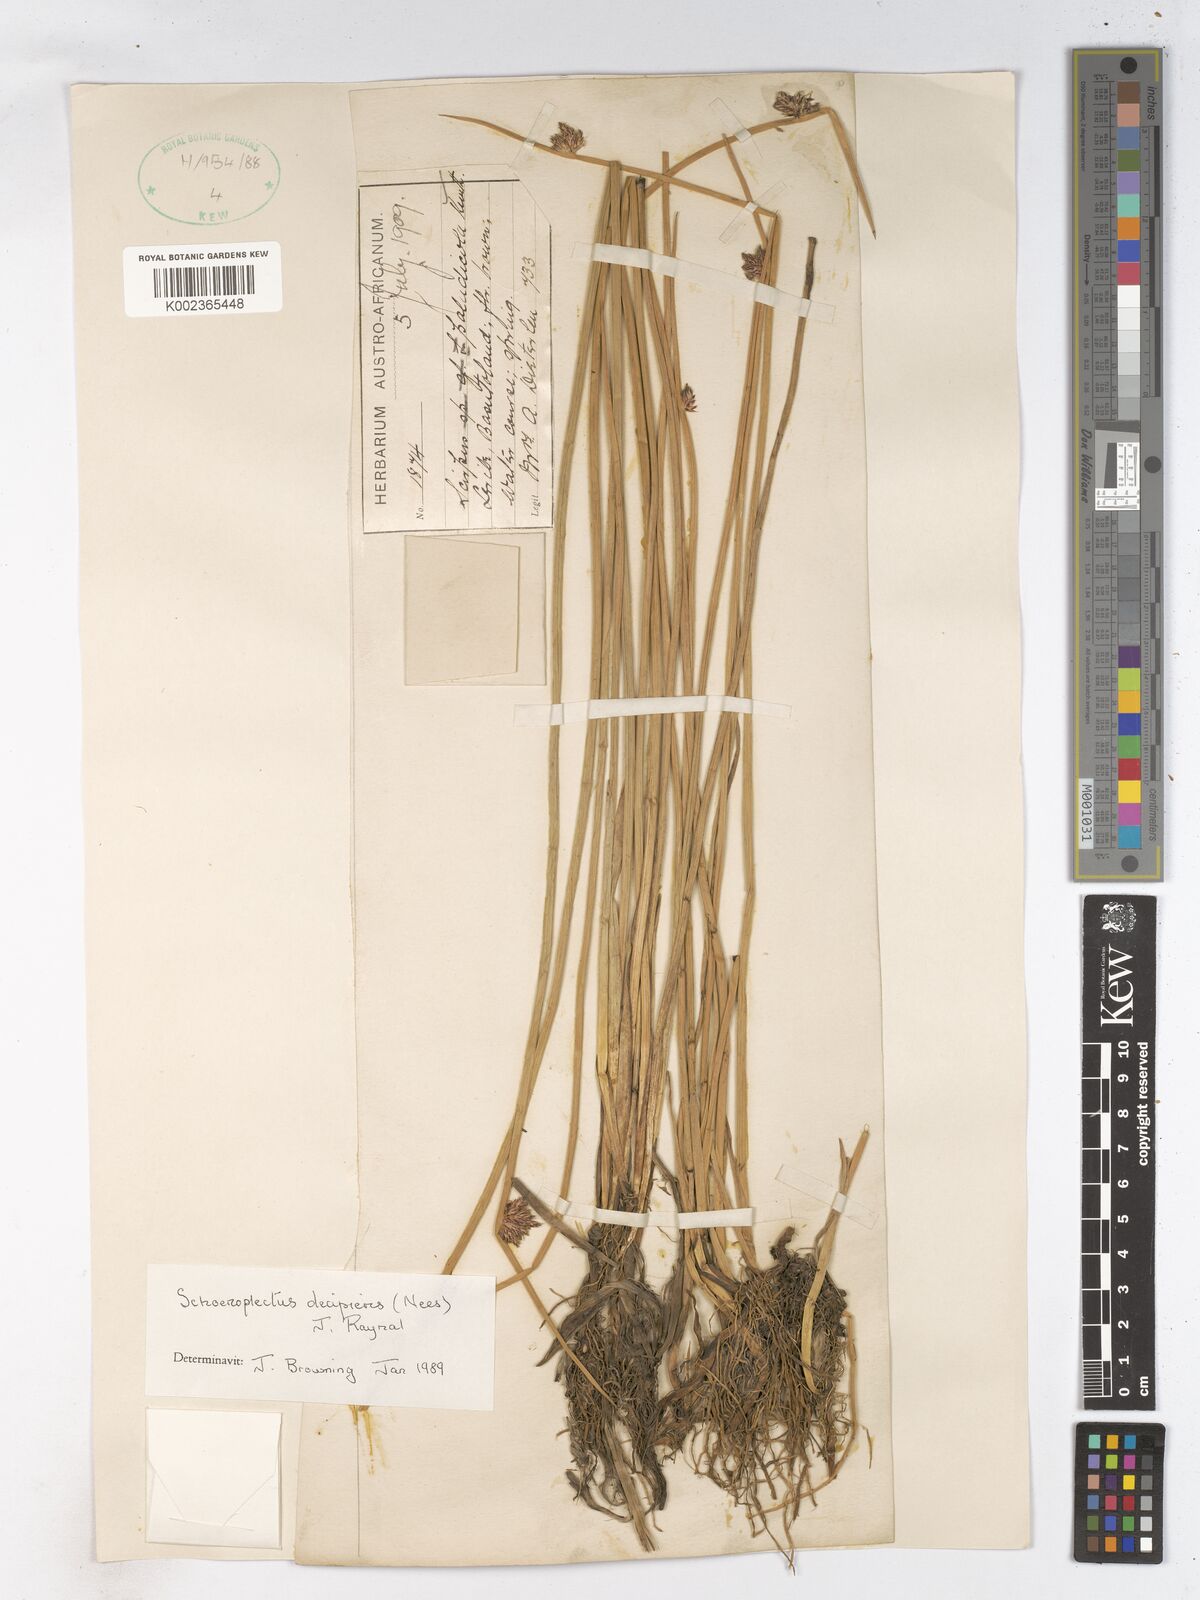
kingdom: Plantae
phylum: Tracheophyta
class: Liliopsida
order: Poales
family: Cyperaceae
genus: Schoenoplectiella
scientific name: Schoenoplectiella paludicola
